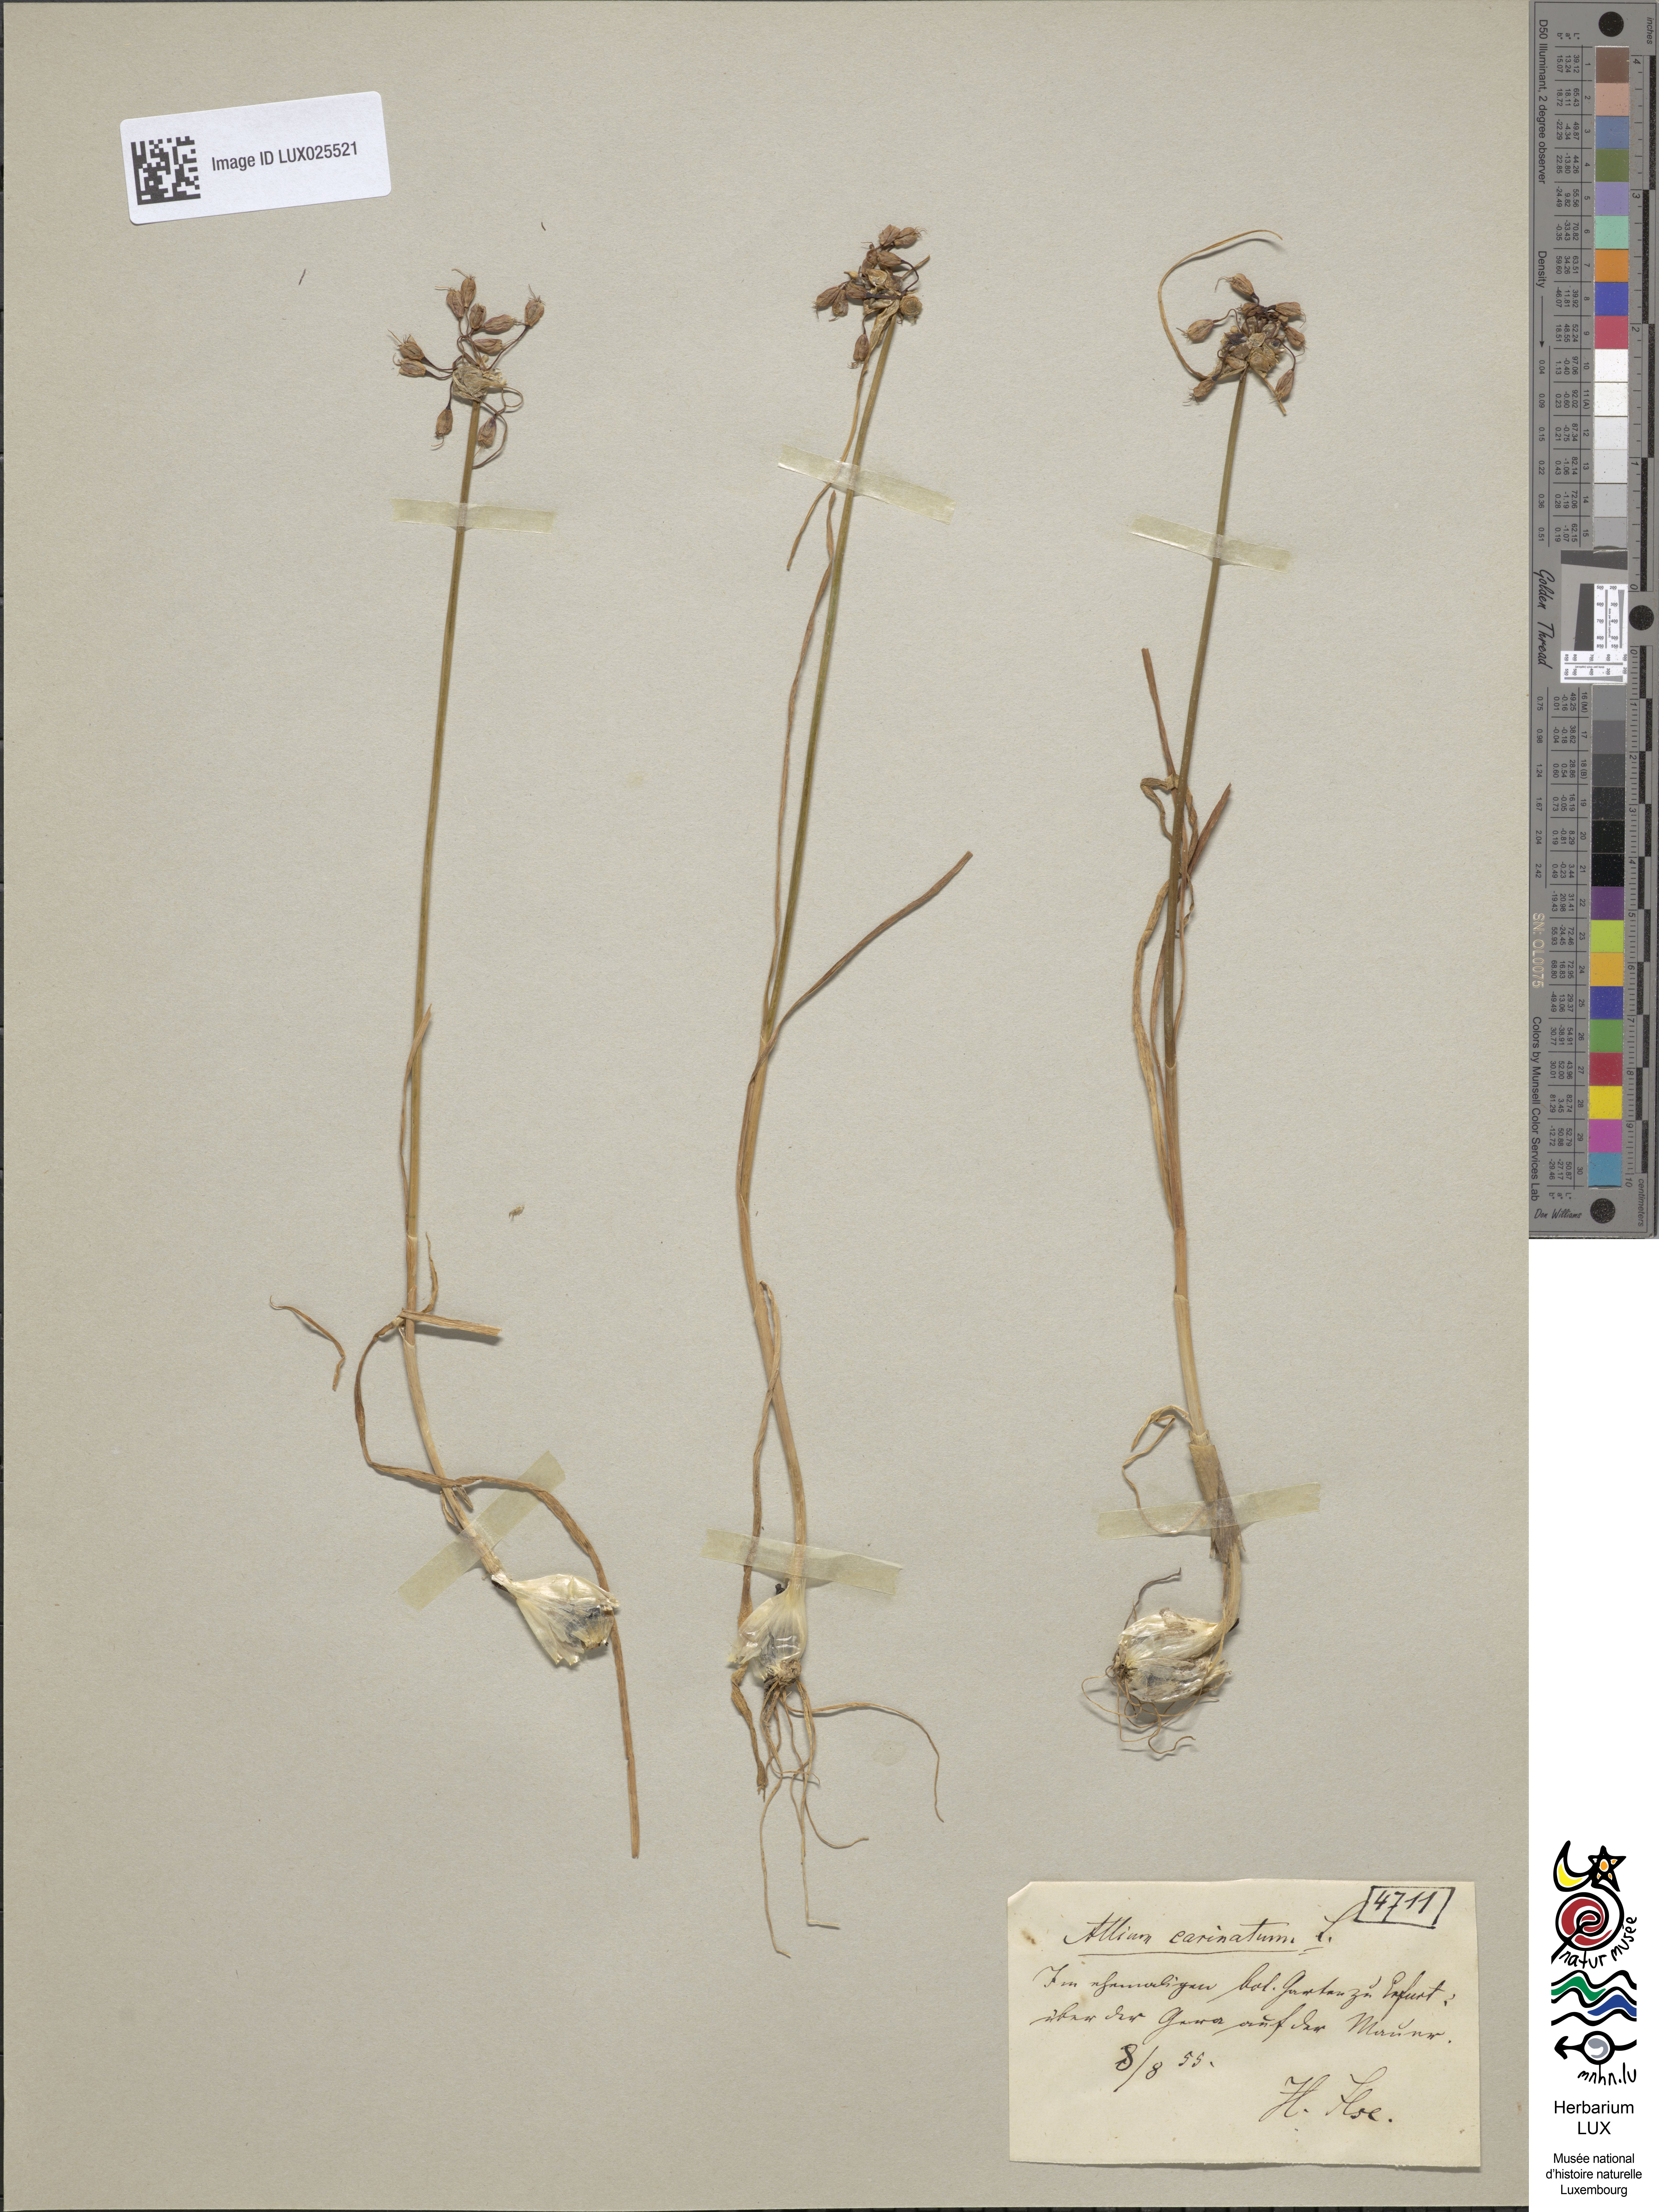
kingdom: Plantae
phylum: Tracheophyta
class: Liliopsida
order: Asparagales
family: Amaryllidaceae
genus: Allium
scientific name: Allium carinatum
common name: Keeled garlic
